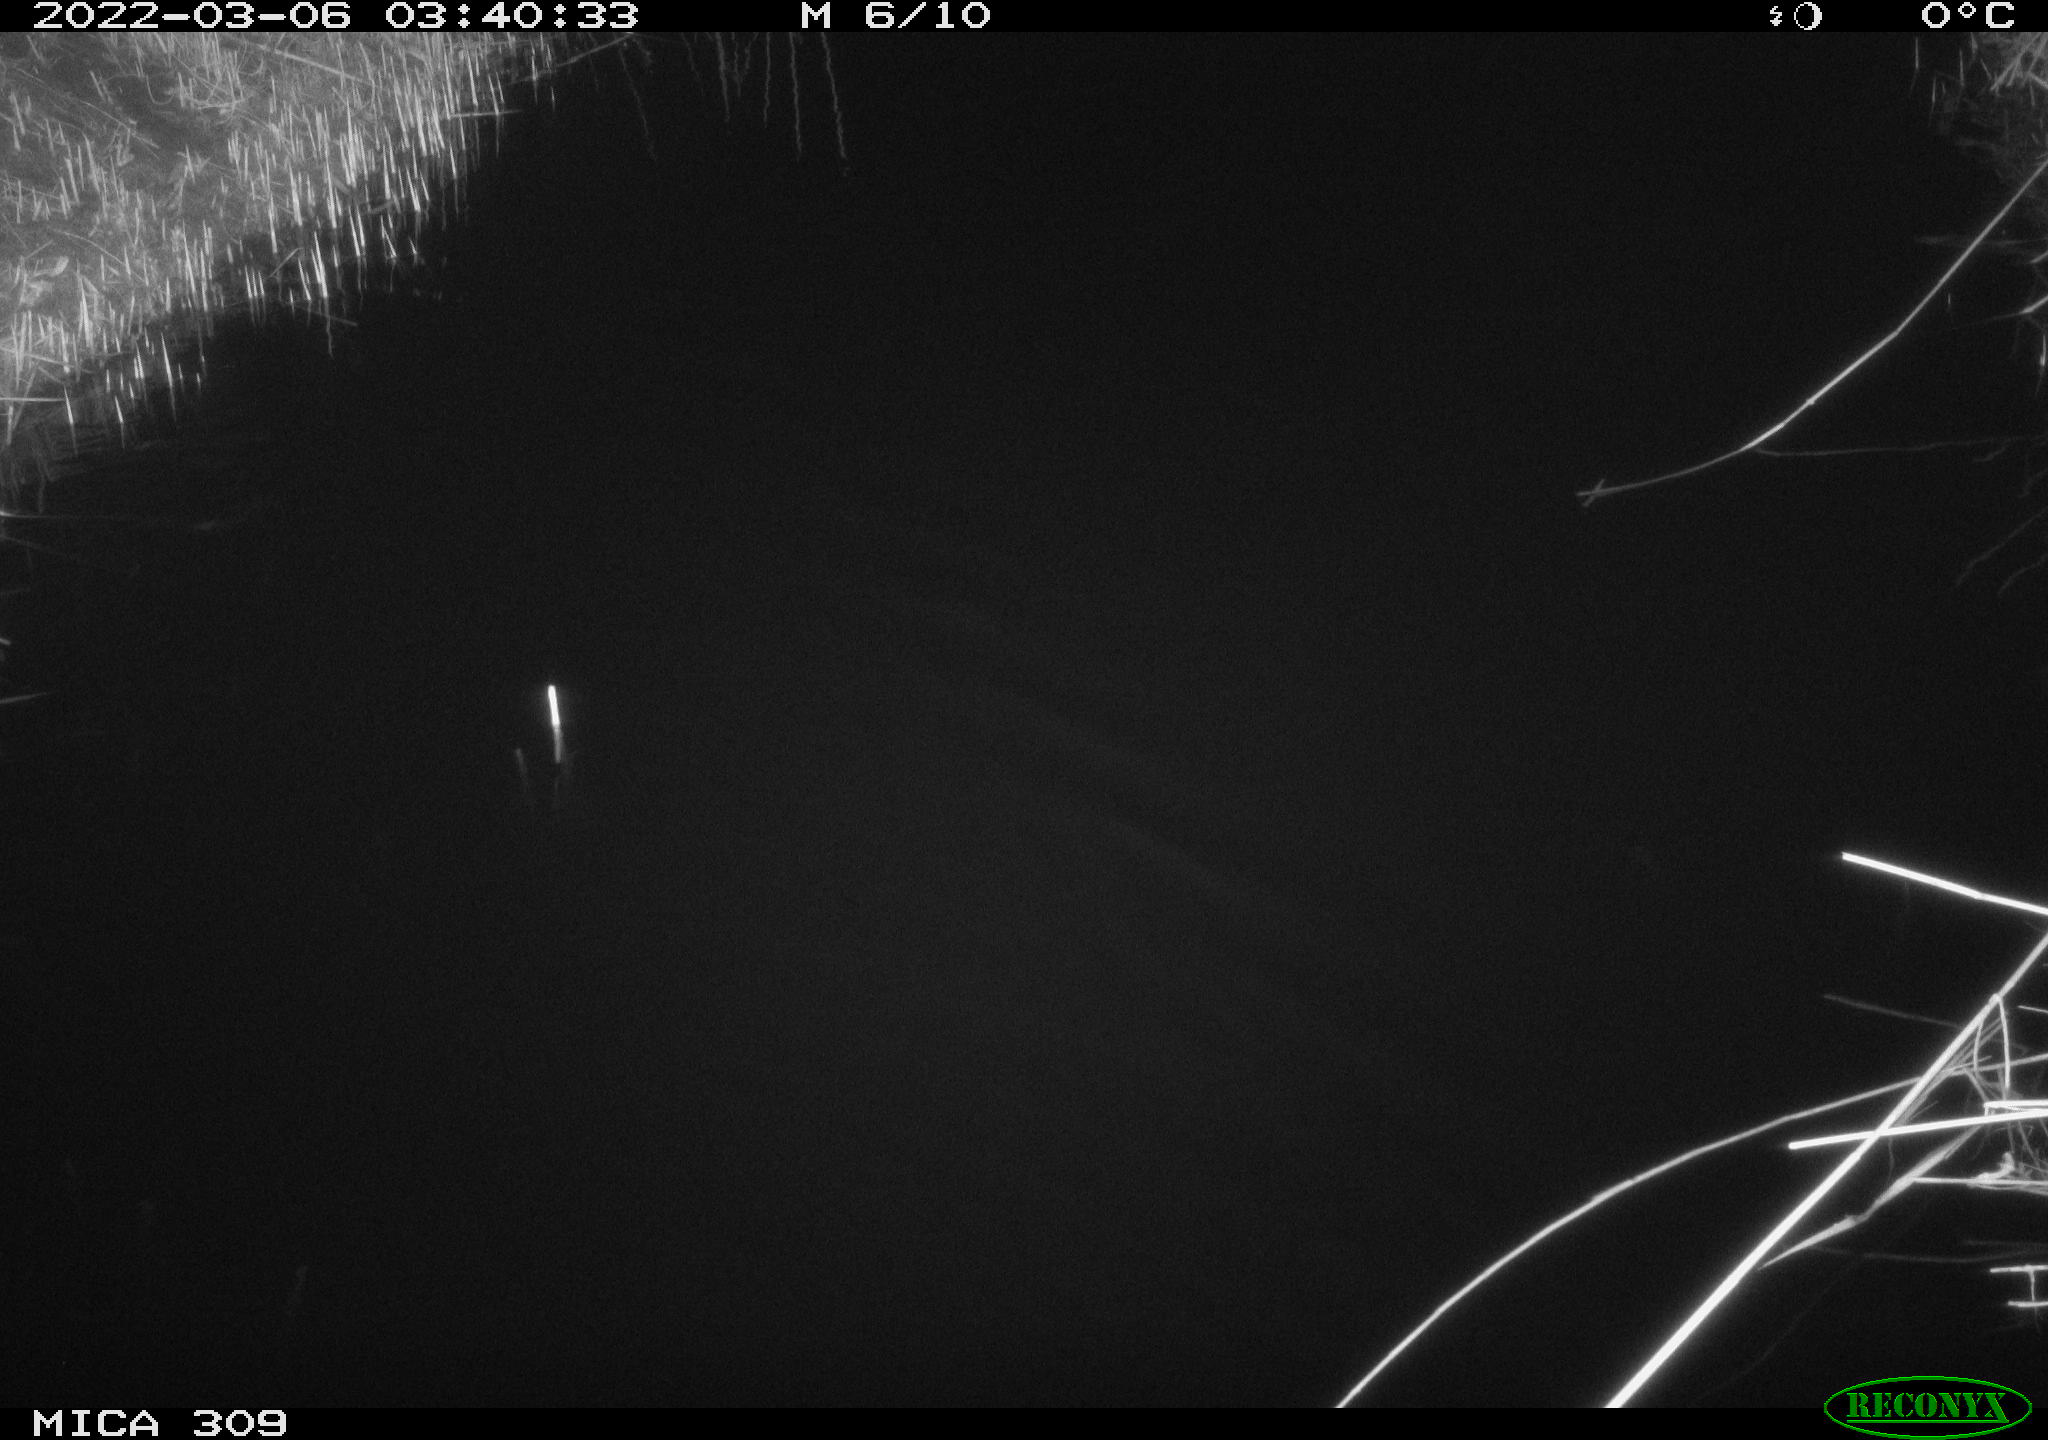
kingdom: Animalia
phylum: Chordata
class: Mammalia
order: Rodentia
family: Muridae
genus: Rattus
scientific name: Rattus norvegicus
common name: Brown rat
